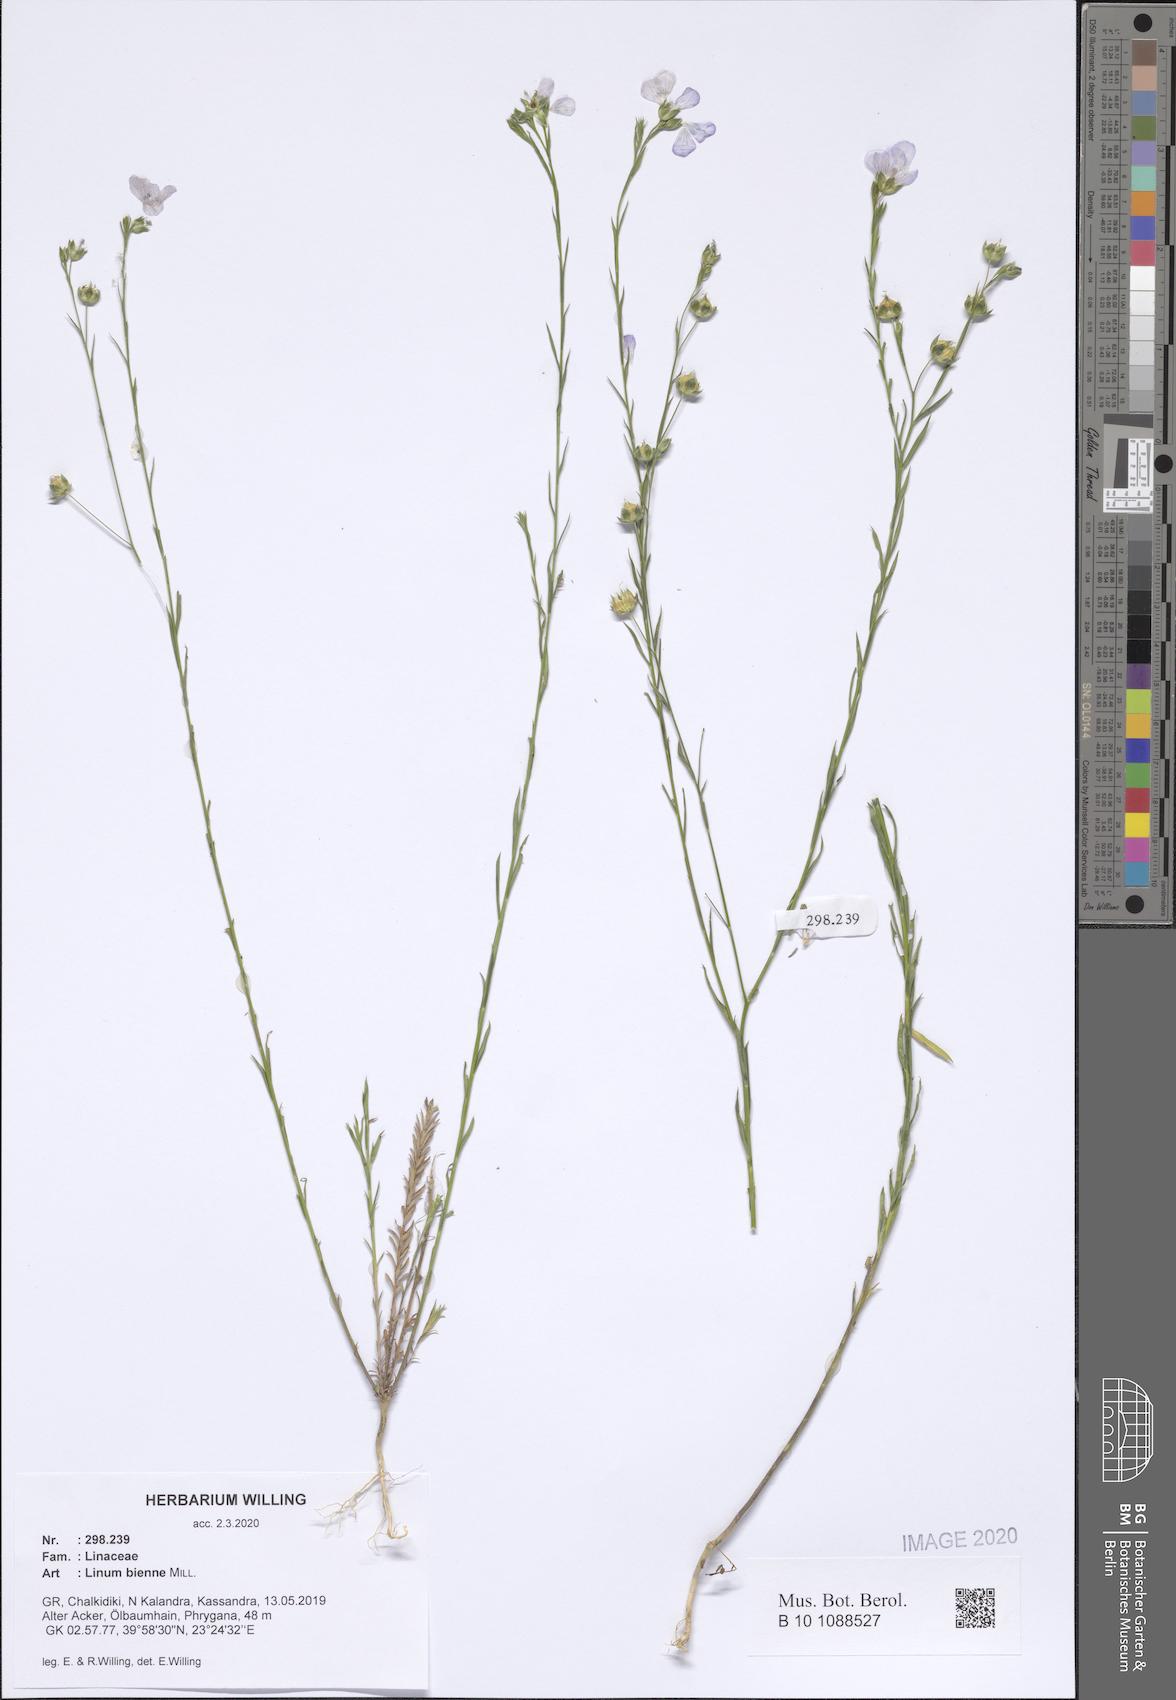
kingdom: Plantae
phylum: Tracheophyta
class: Magnoliopsida
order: Malpighiales
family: Linaceae
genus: Linum
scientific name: Linum bienne
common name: Pale flax
